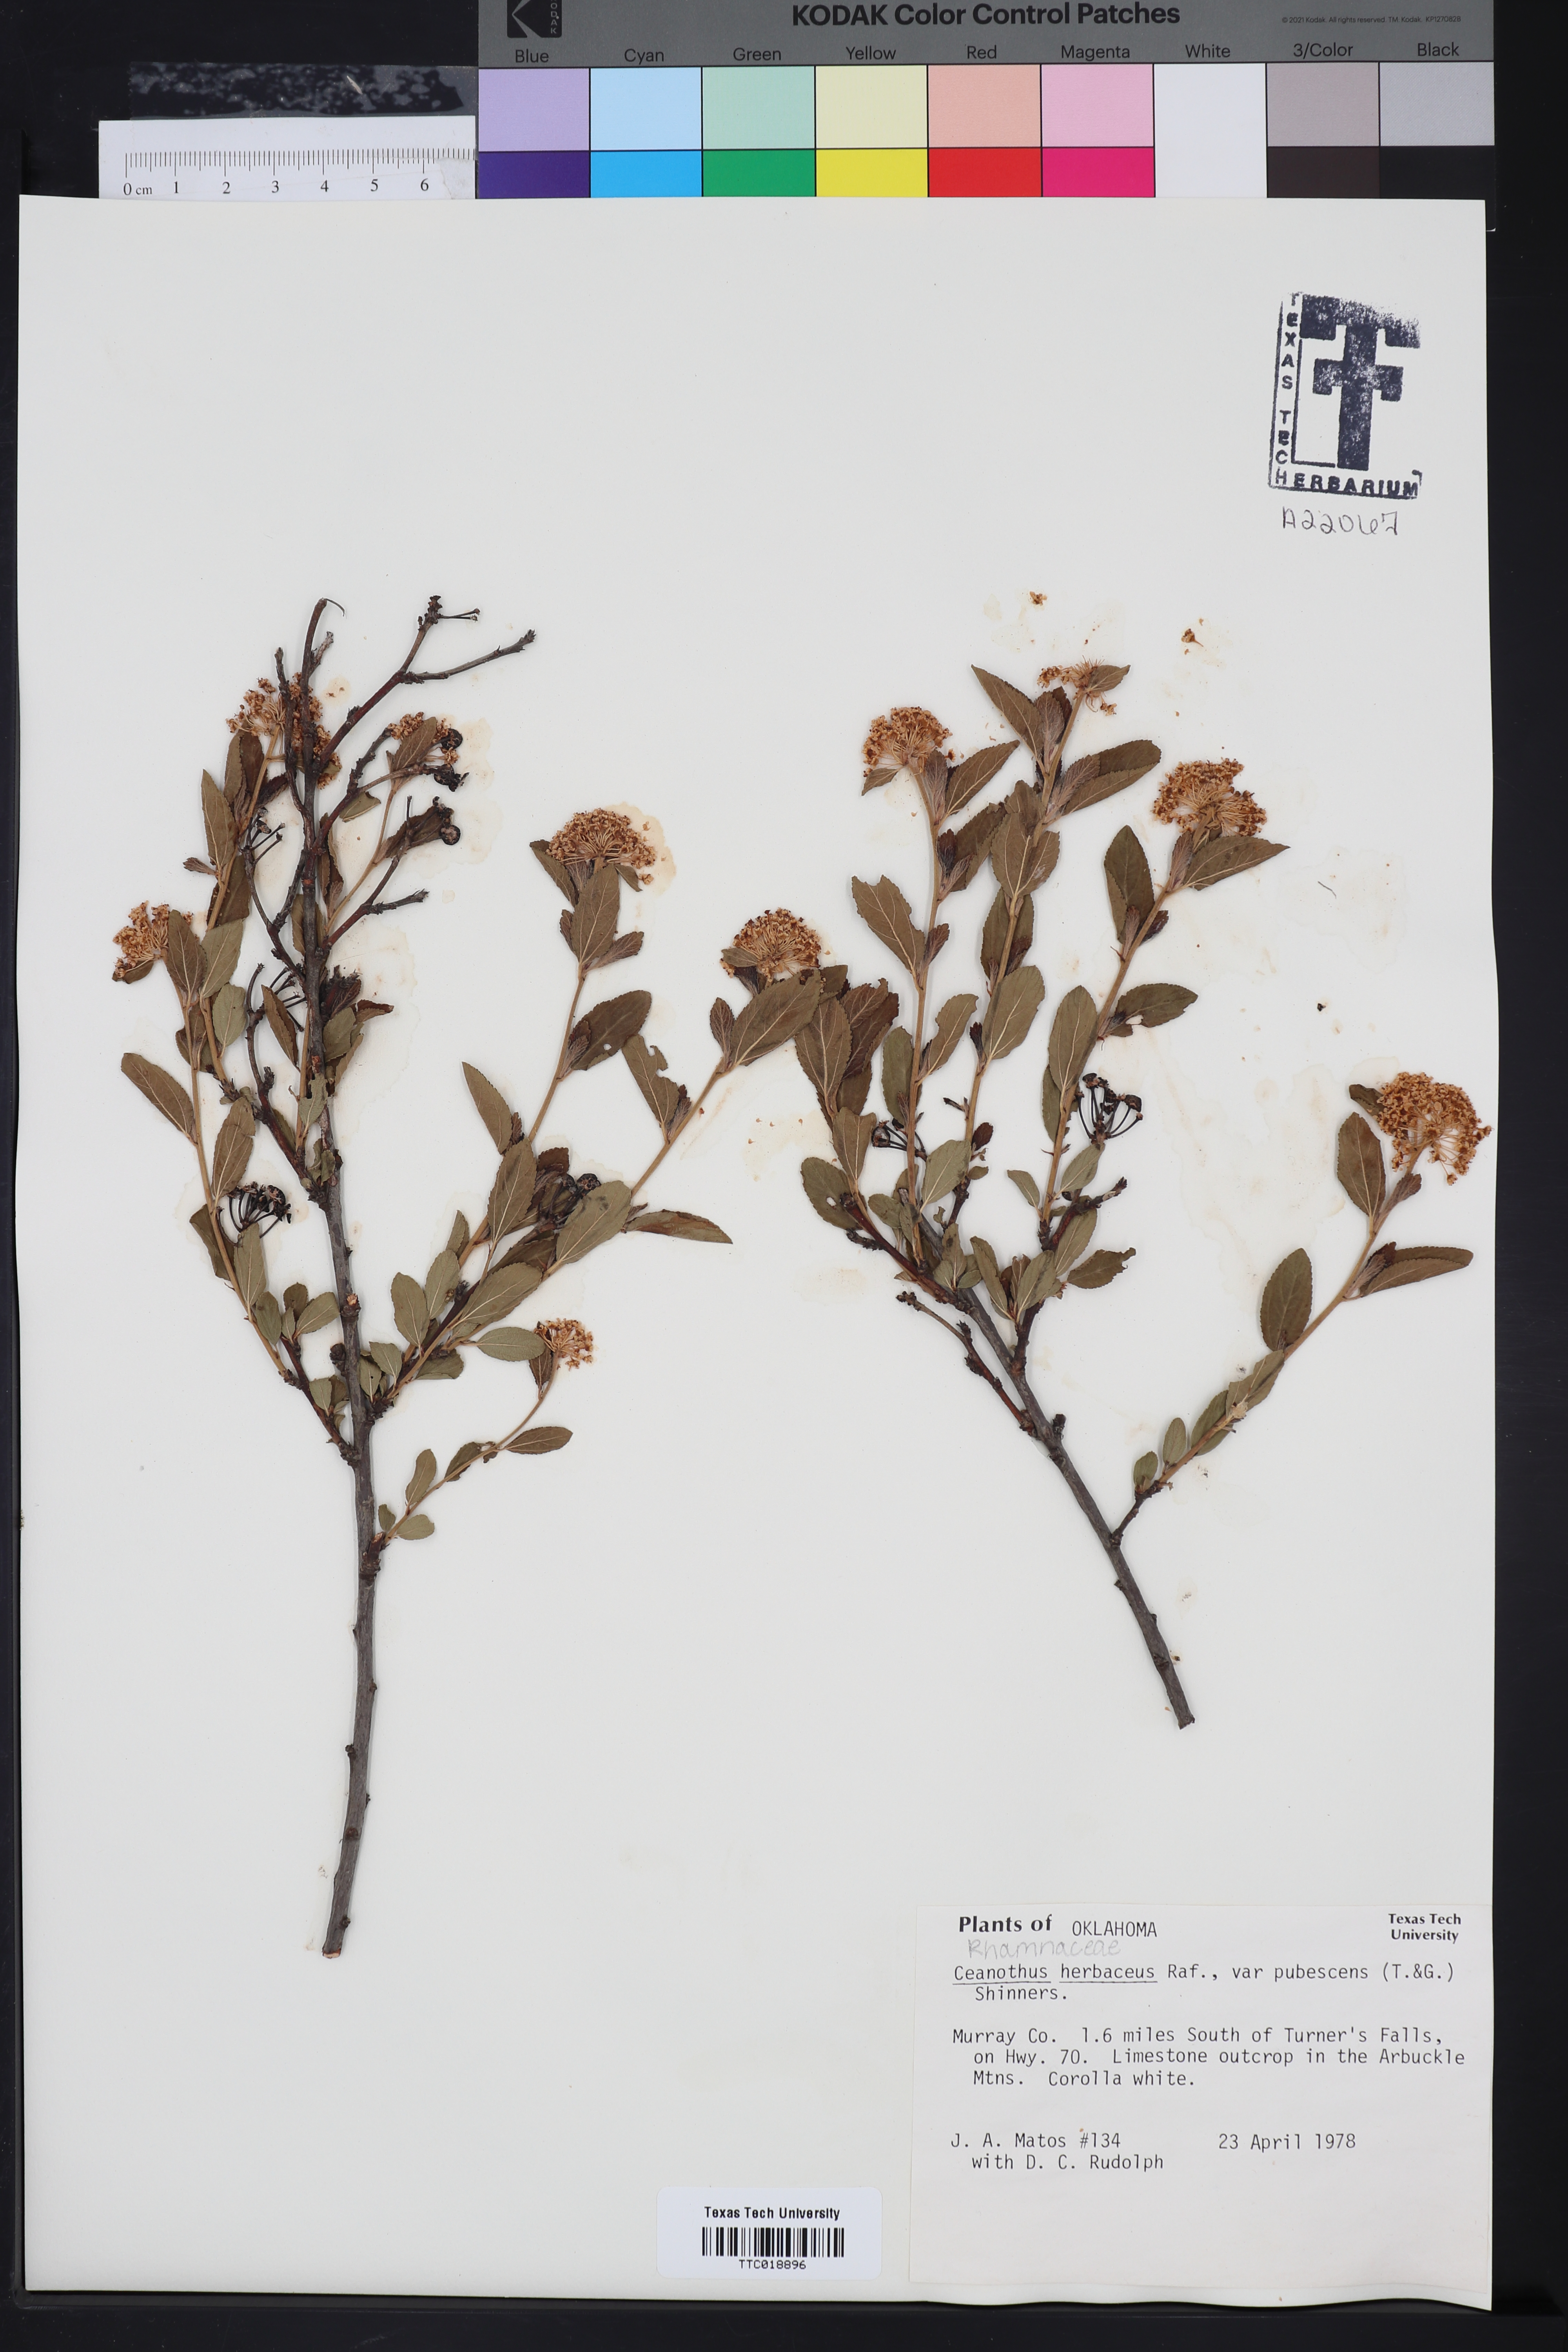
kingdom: Plantae
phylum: Tracheophyta
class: Magnoliopsida
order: Rosales
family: Rhamnaceae
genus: Ceanothus
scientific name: Ceanothus herbaceus
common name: Inland ceanothus
